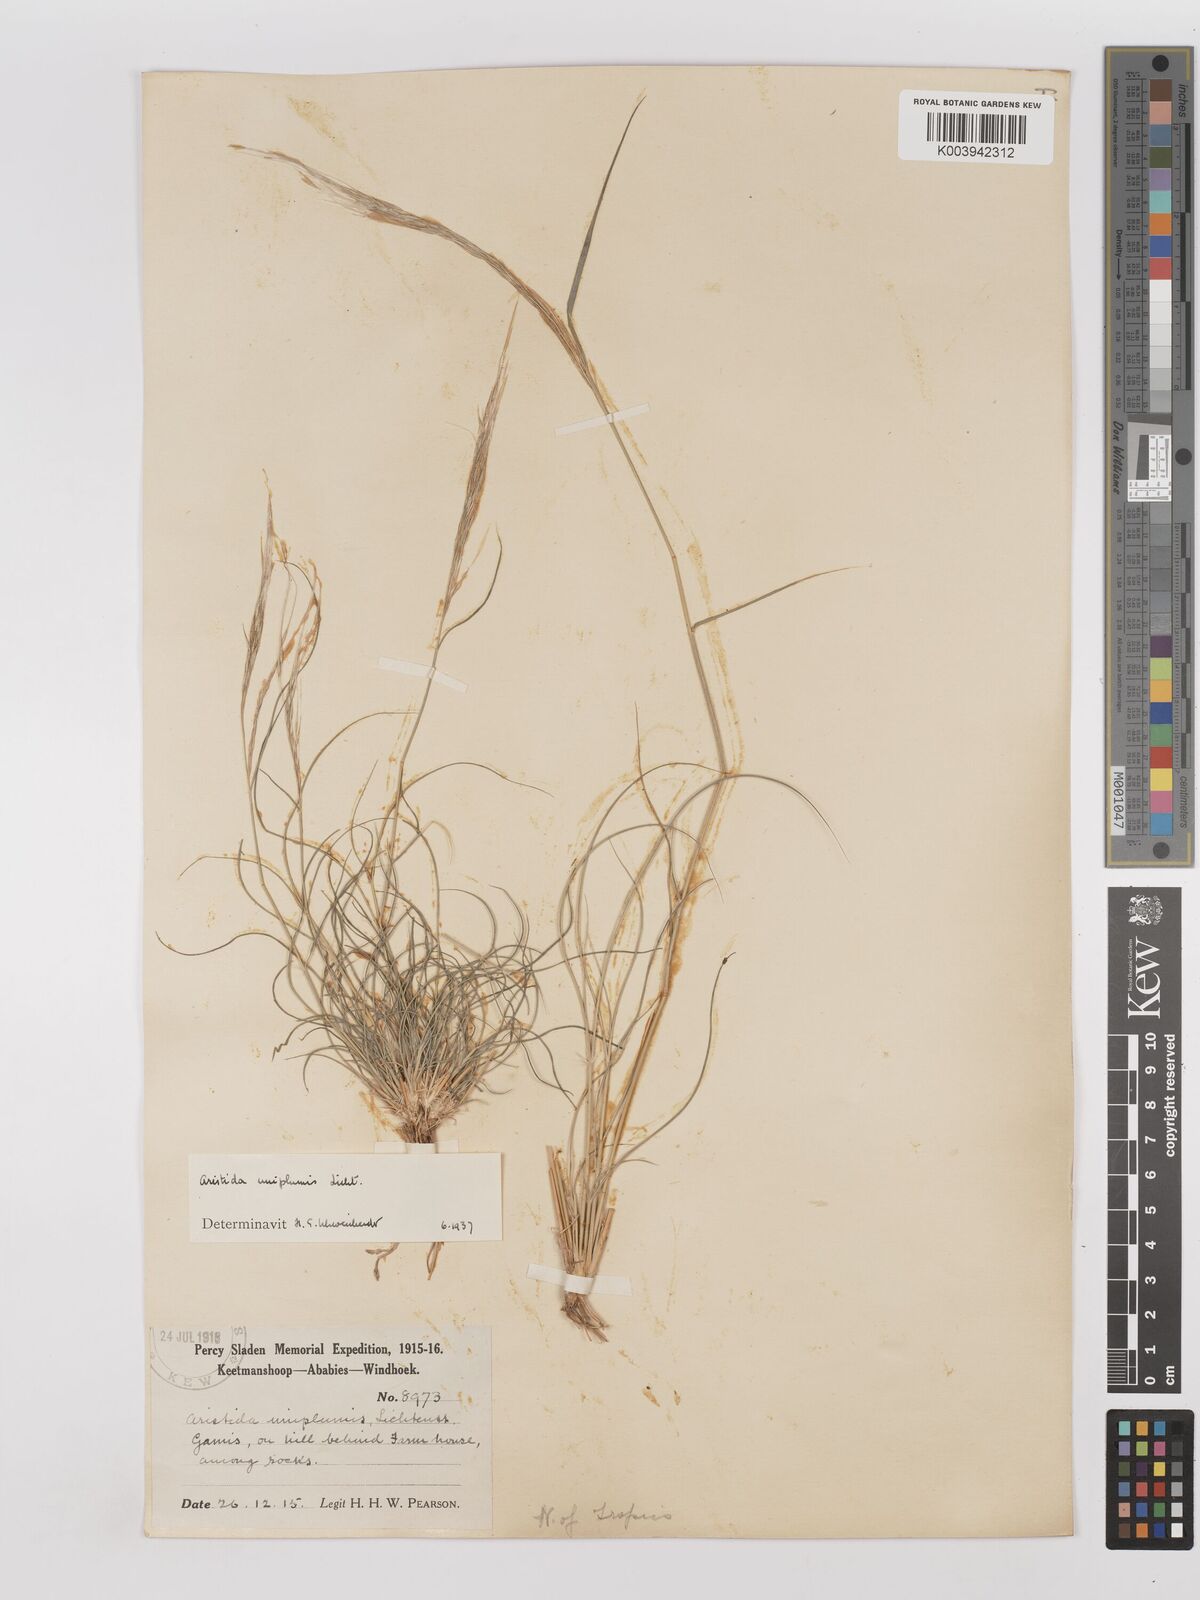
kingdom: Plantae
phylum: Tracheophyta
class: Liliopsida
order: Poales
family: Poaceae
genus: Stipagrostis
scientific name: Stipagrostis uniplumis
